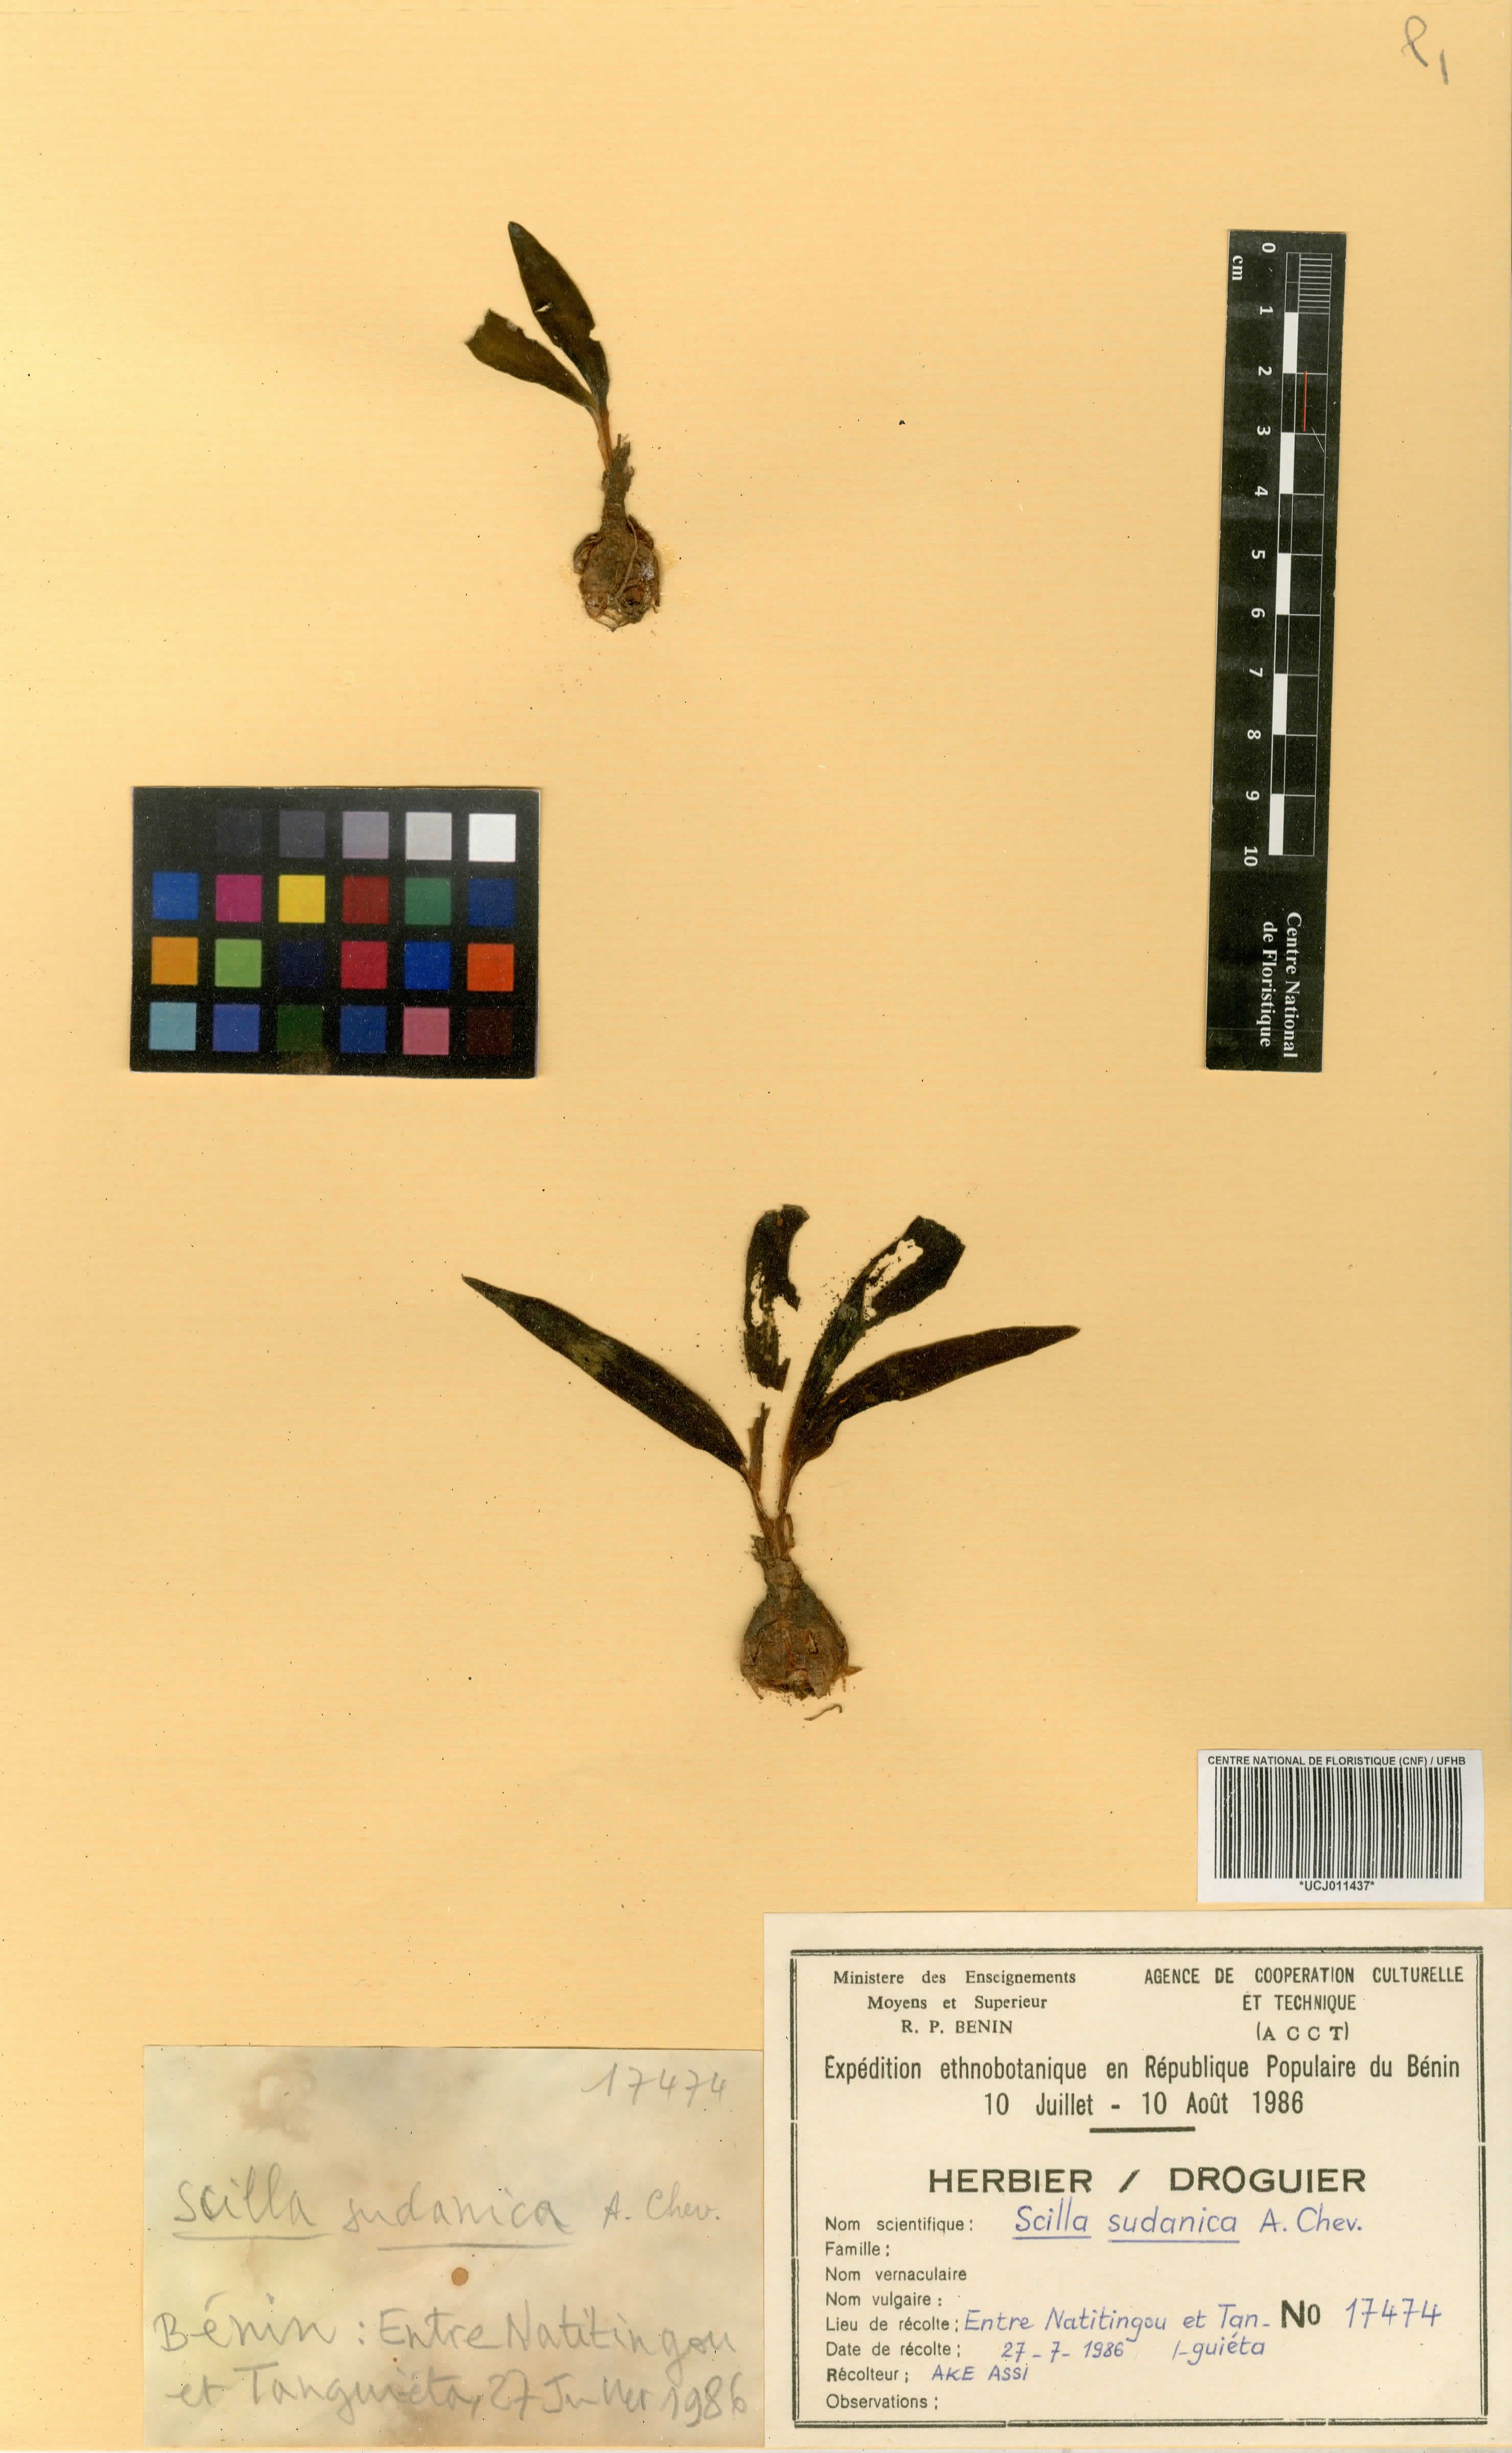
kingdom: Plantae
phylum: Tracheophyta
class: Liliopsida
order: Asparagales
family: Asparagaceae
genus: Ledebouria
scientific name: Ledebouria sudanica
